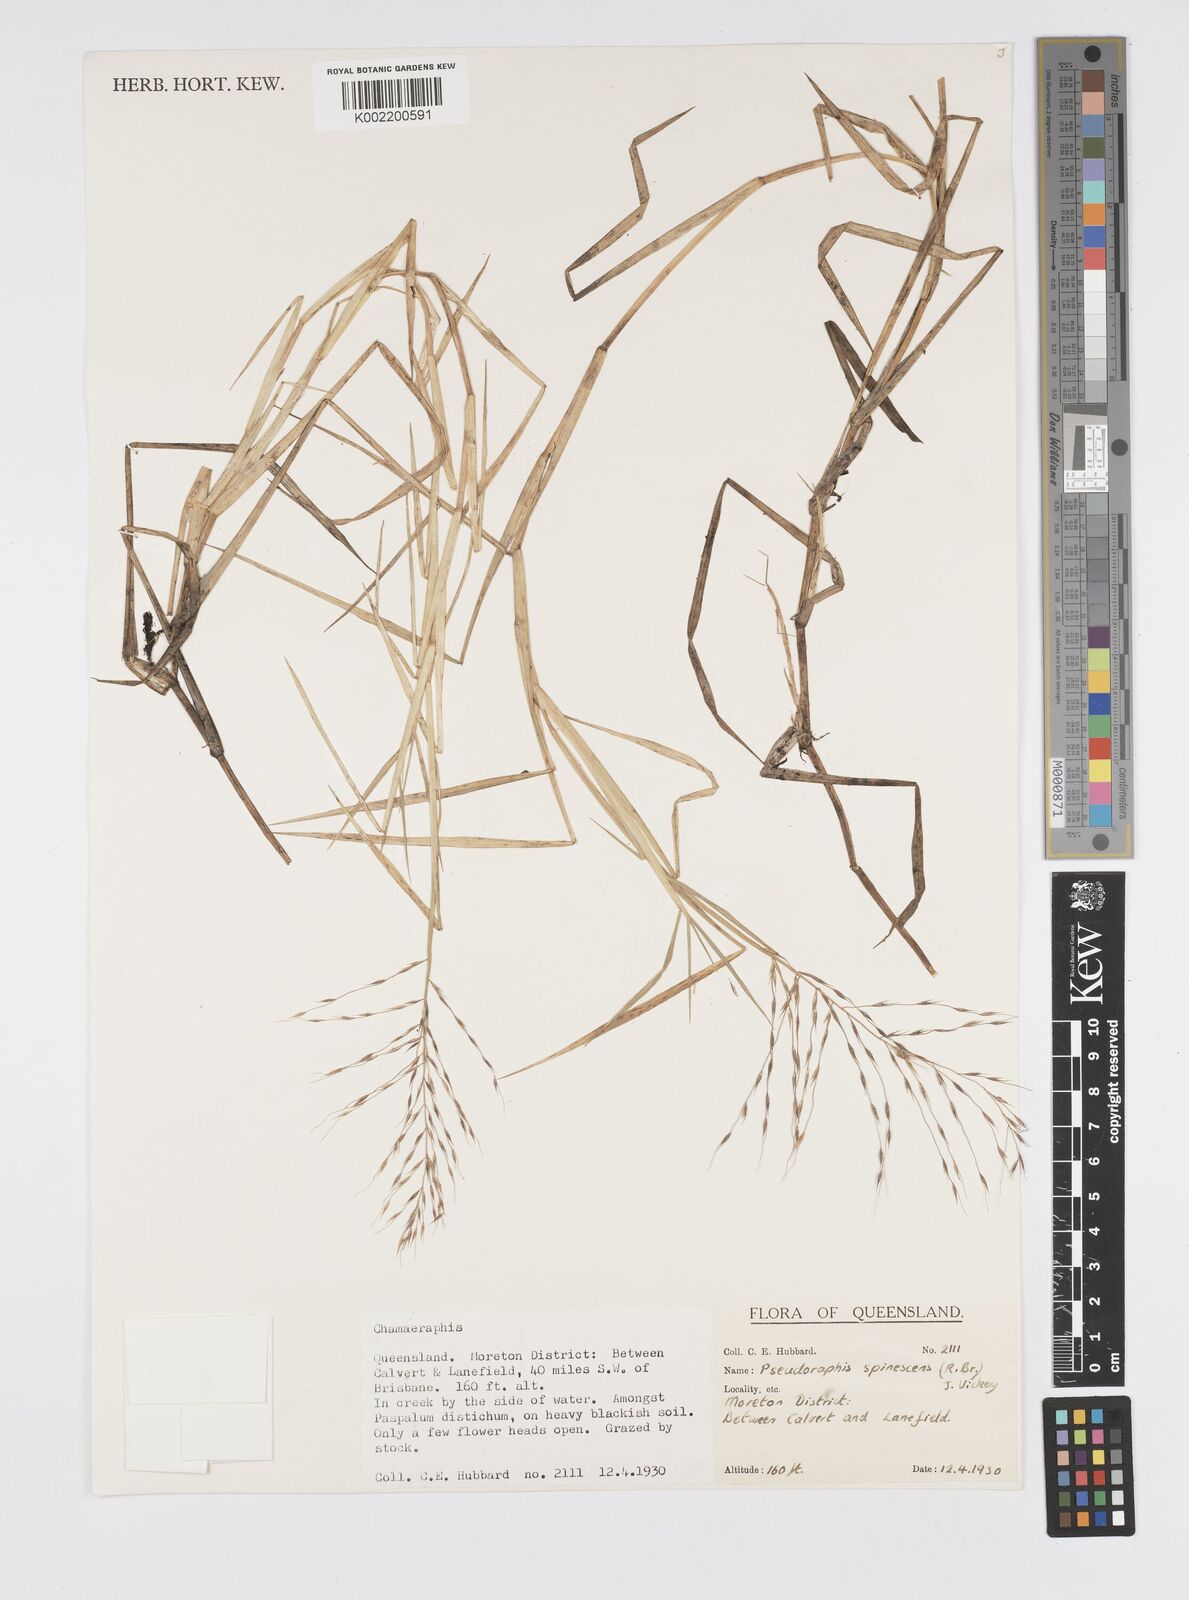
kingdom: Plantae
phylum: Tracheophyta
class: Liliopsida
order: Poales
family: Poaceae
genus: Pseudoraphis
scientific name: Pseudoraphis spinescens
